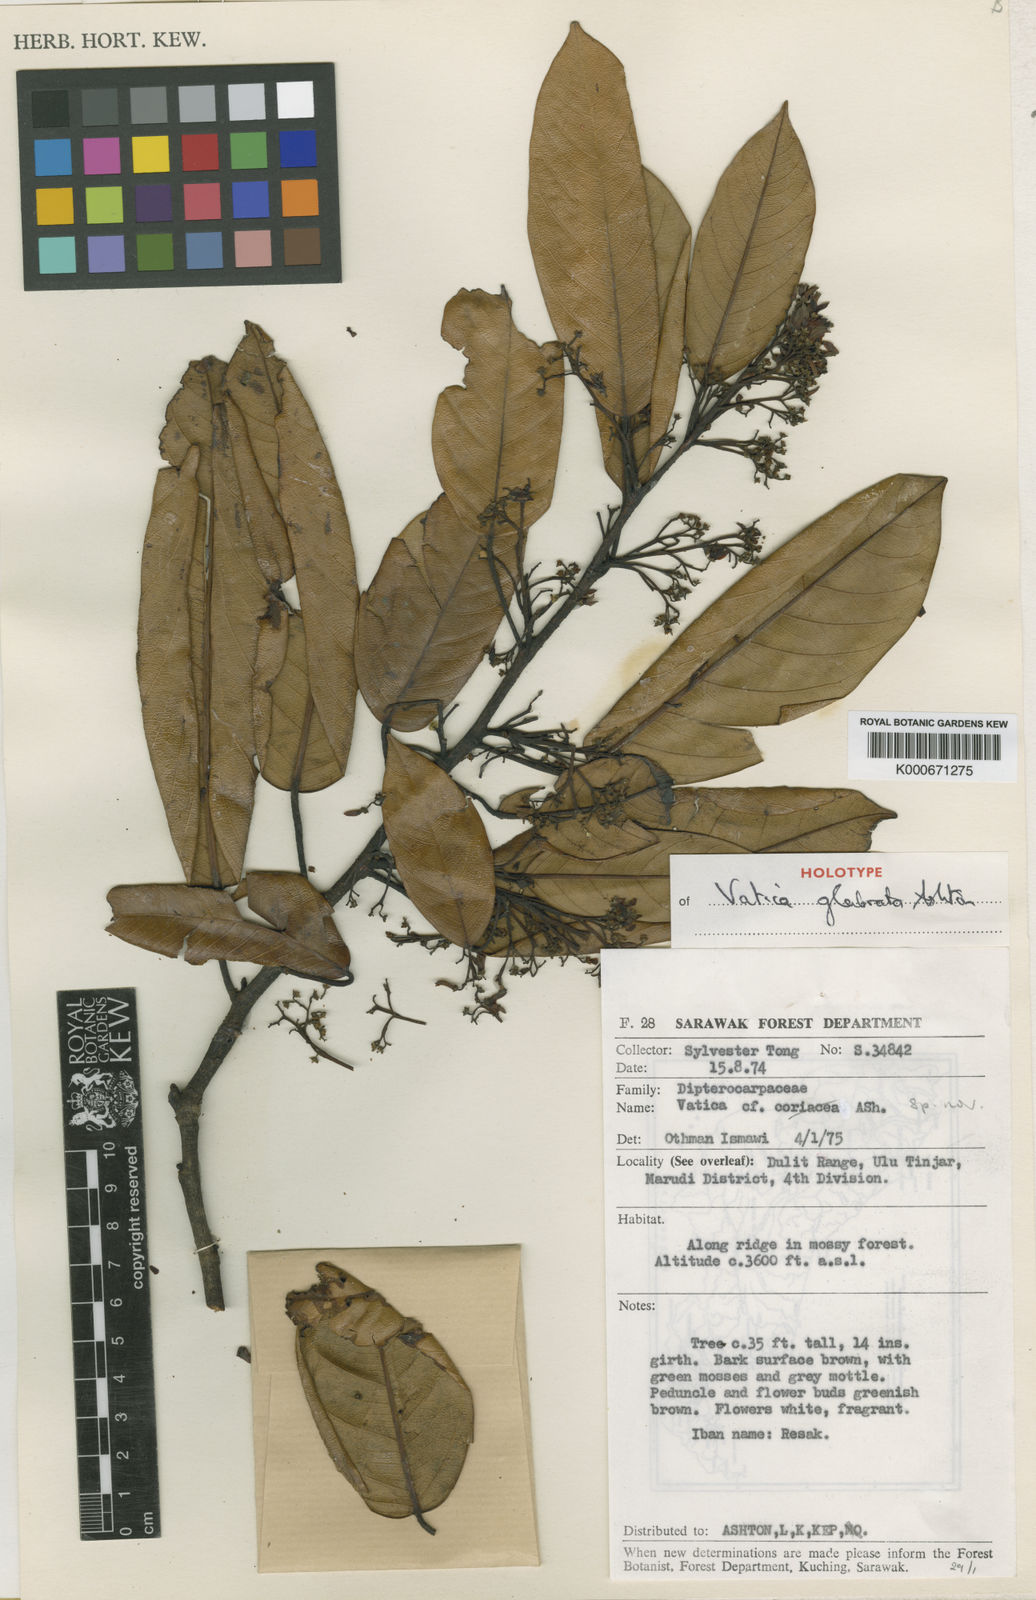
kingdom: Plantae
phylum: Tracheophyta
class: Magnoliopsida
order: Malvales
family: Dipterocarpaceae
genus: Vatica
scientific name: Vatica glabrata
